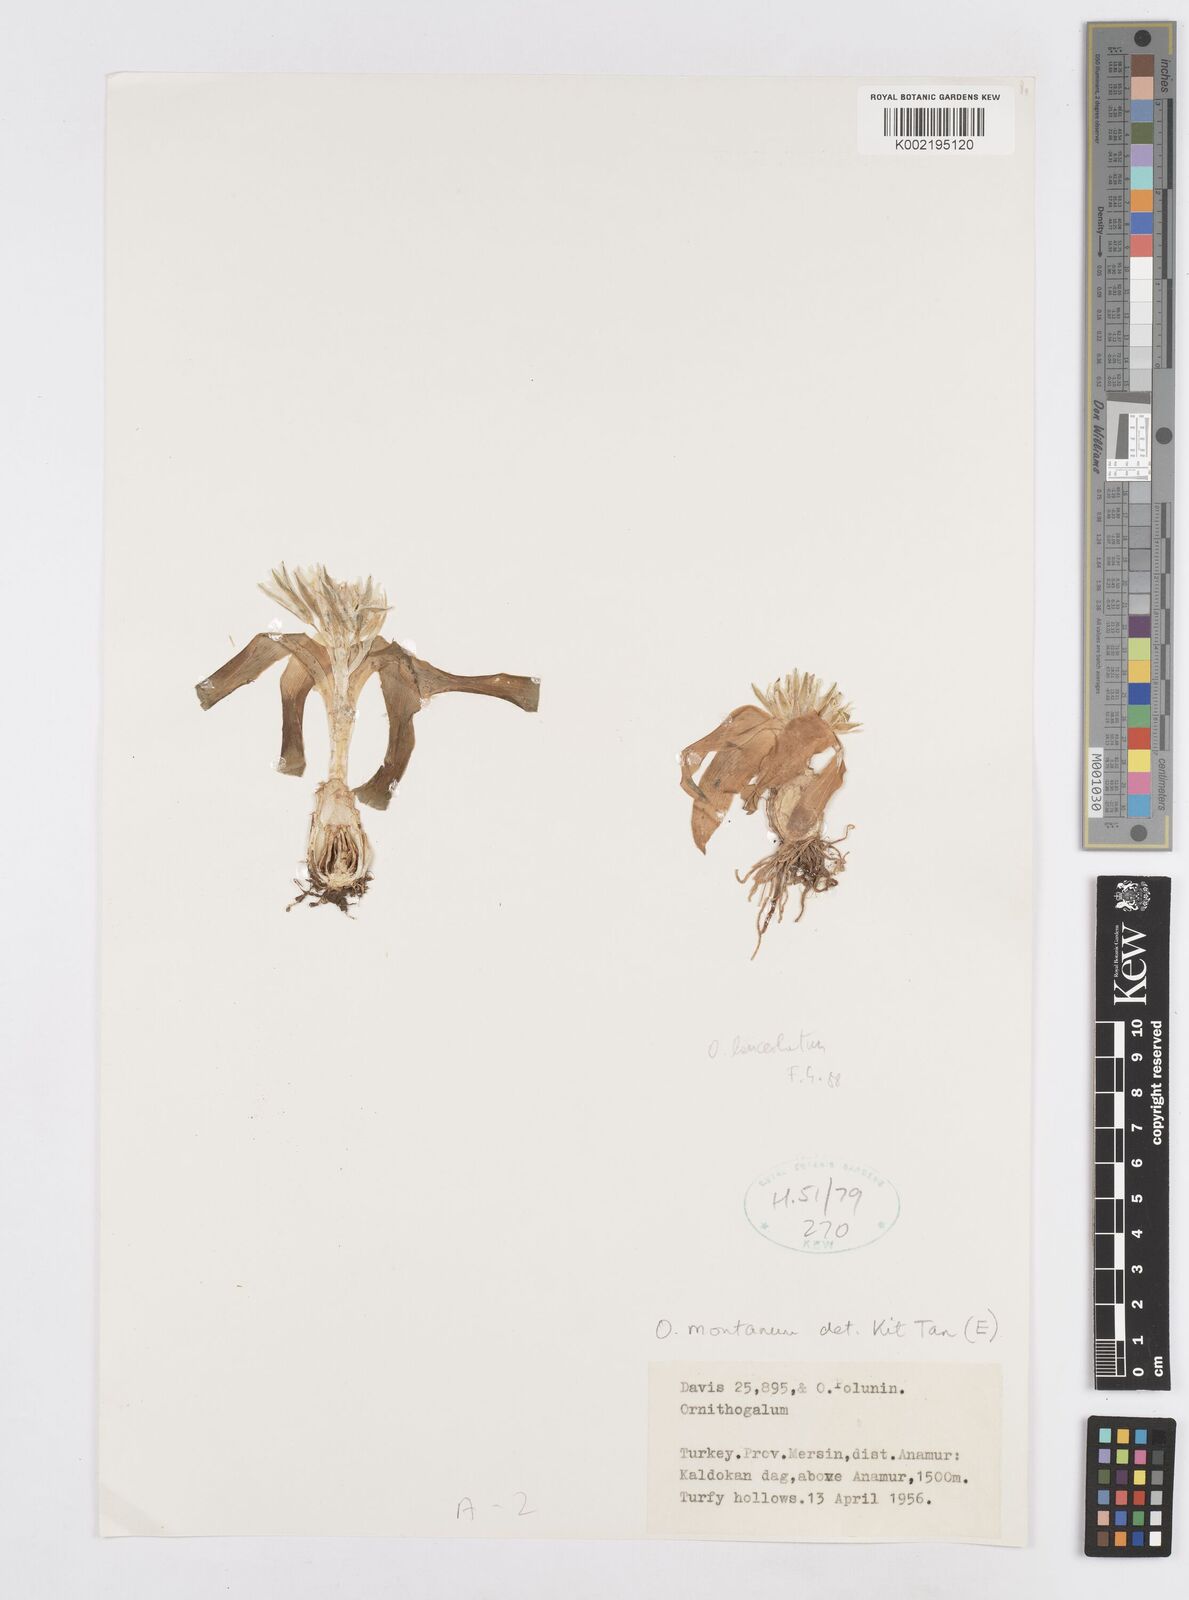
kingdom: Plantae
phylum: Tracheophyta
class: Liliopsida
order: Asparagales
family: Asparagaceae
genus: Ornithogalum
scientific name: Ornithogalum lanceolatum
